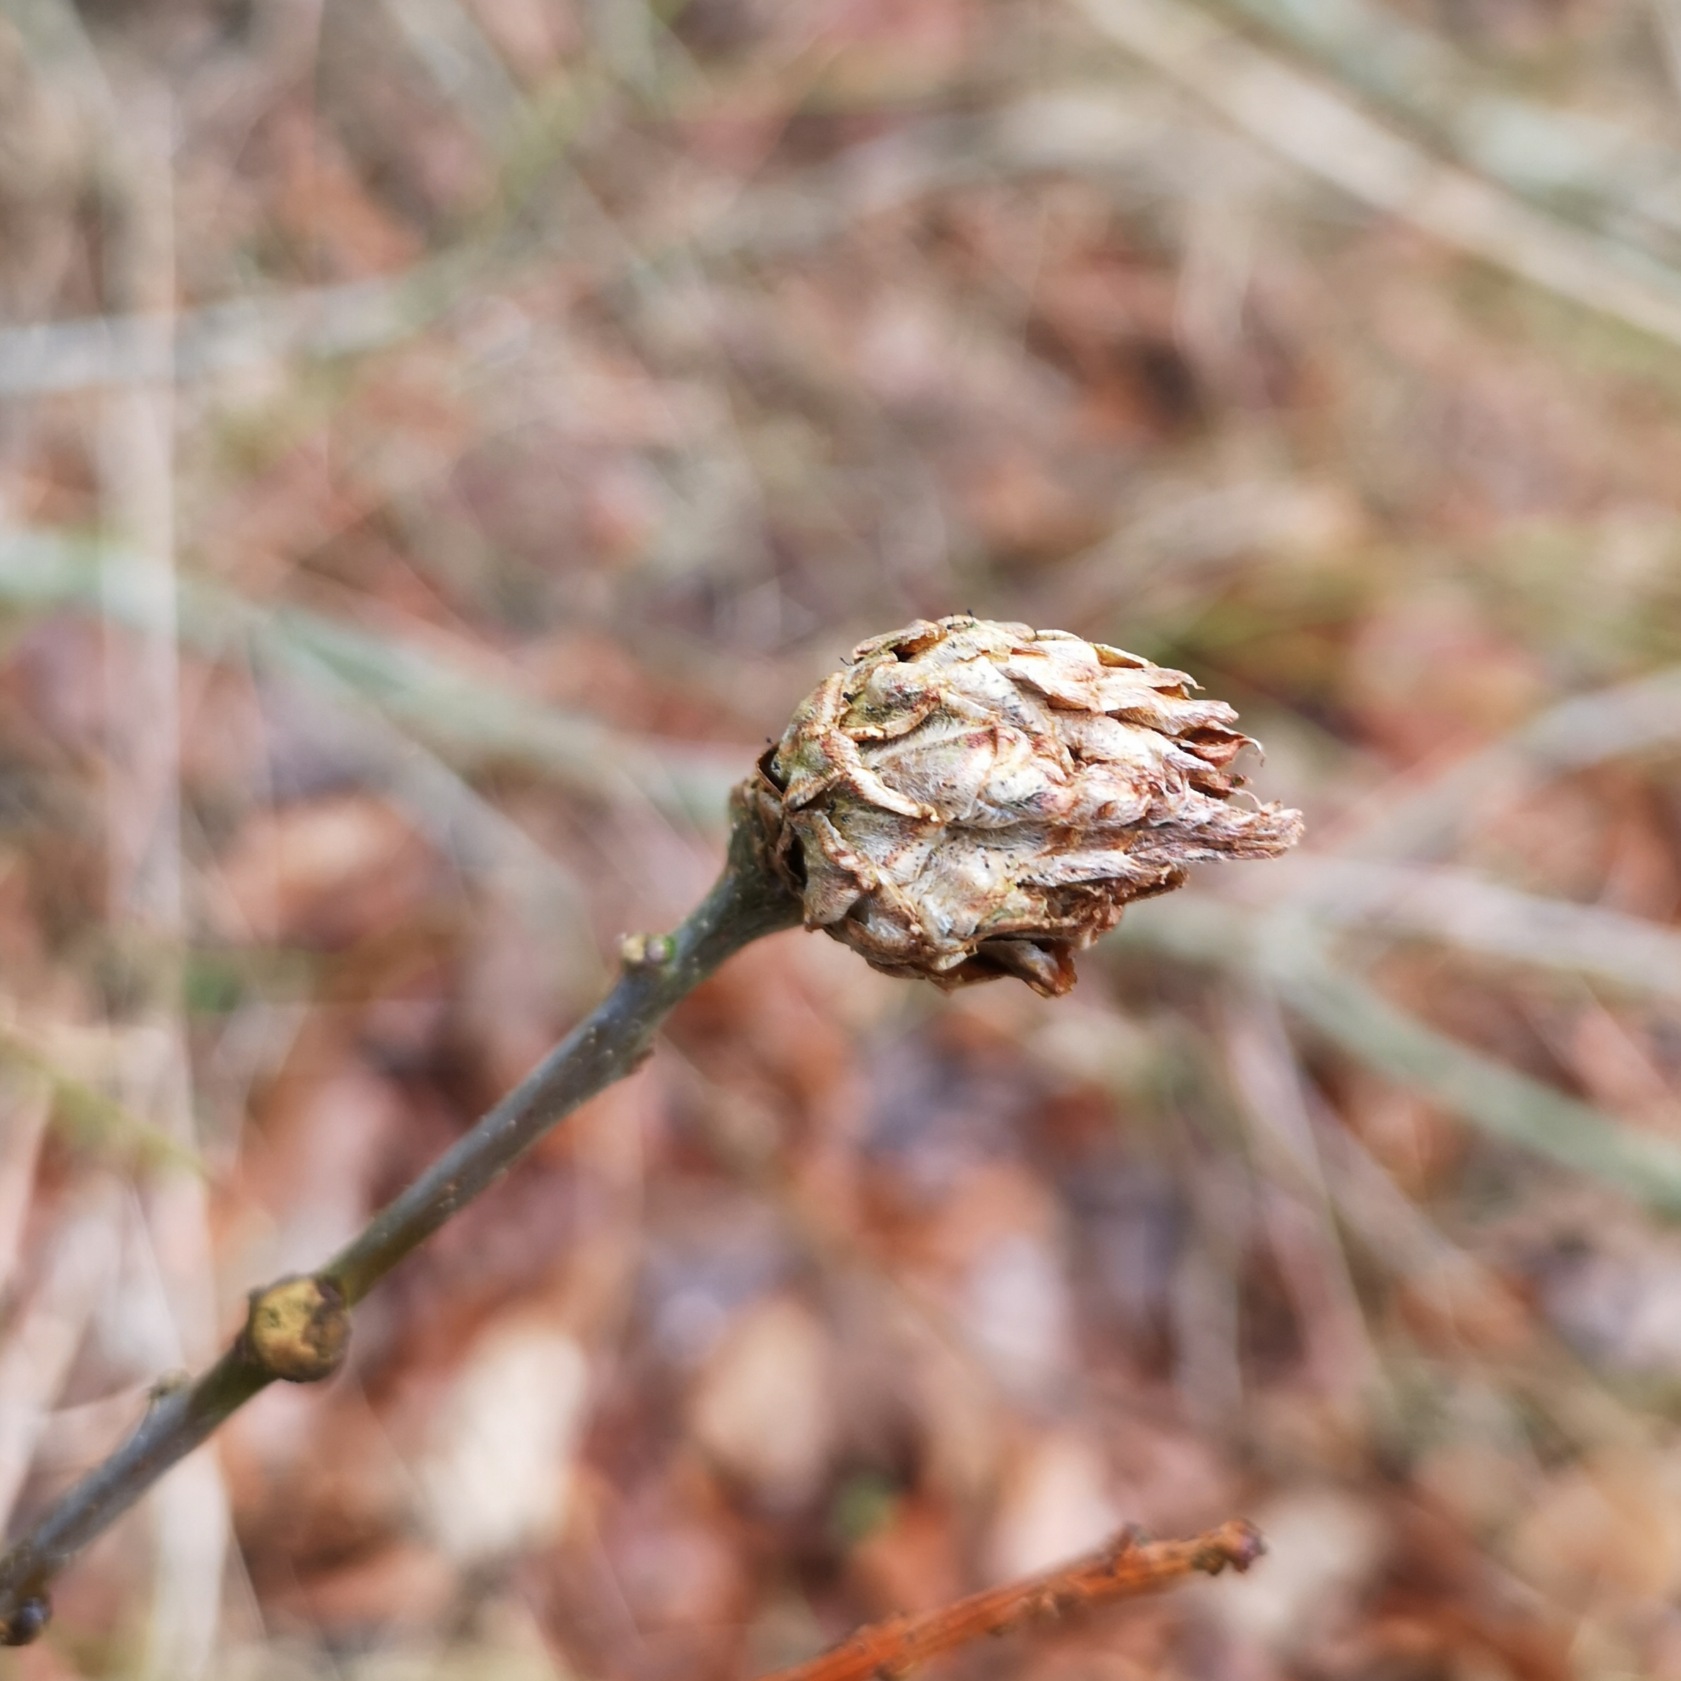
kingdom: Animalia
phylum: Arthropoda
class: Insecta
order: Hymenoptera
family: Cynipidae
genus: Andricus
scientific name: Andricus foecundatrix
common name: Artiskokgalhveps
